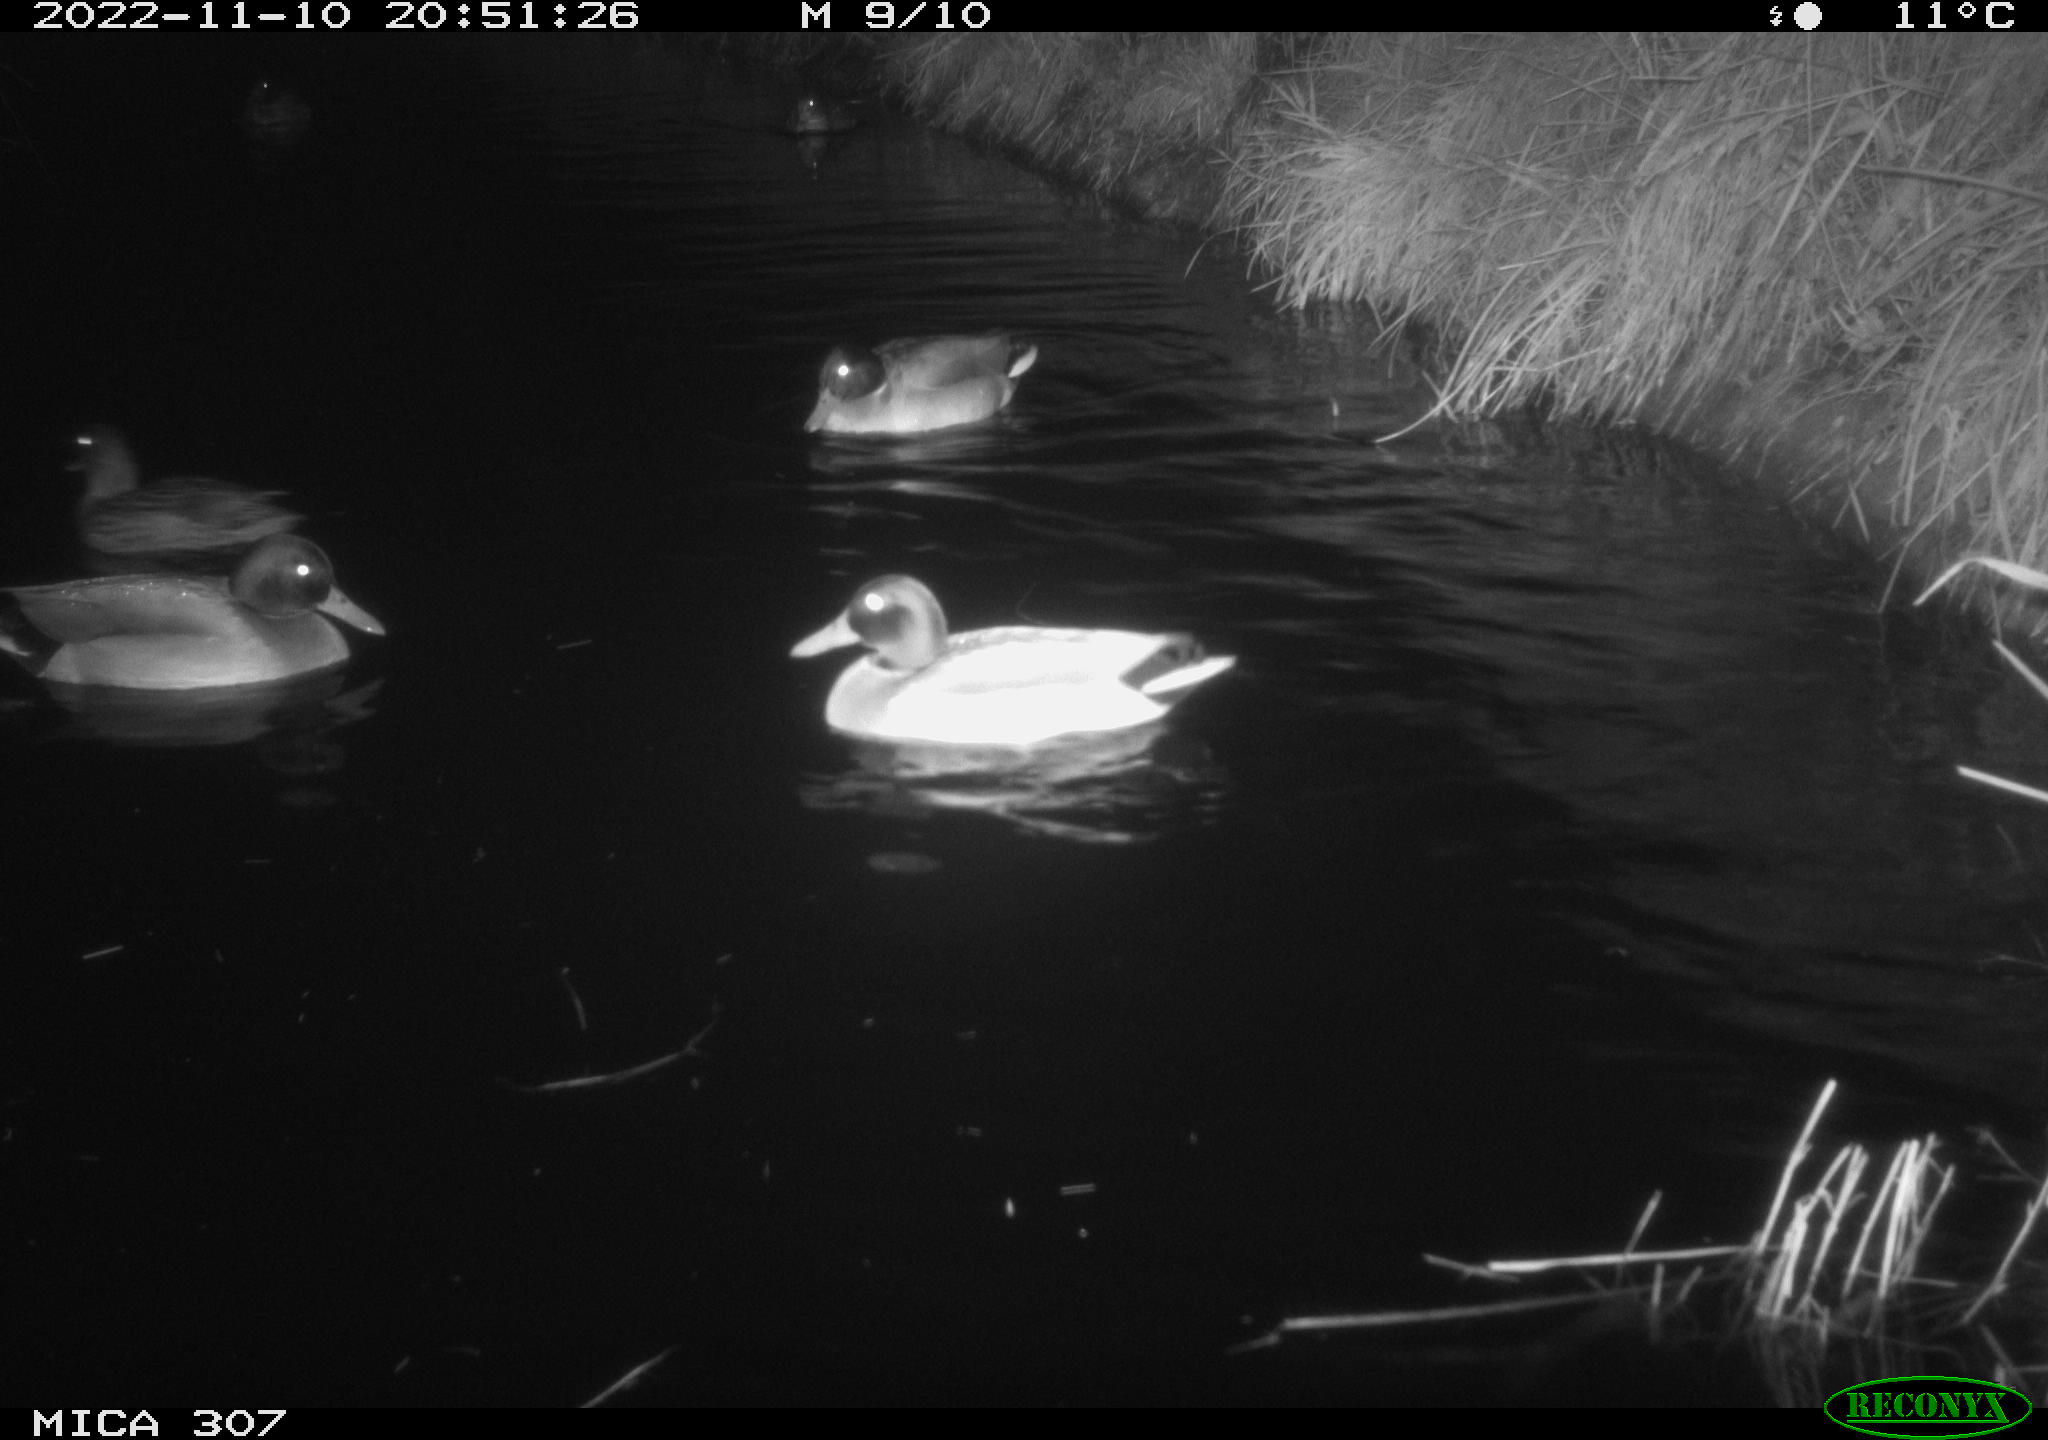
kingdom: Animalia
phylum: Chordata
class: Aves
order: Anseriformes
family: Anatidae
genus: Anas
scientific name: Anas
